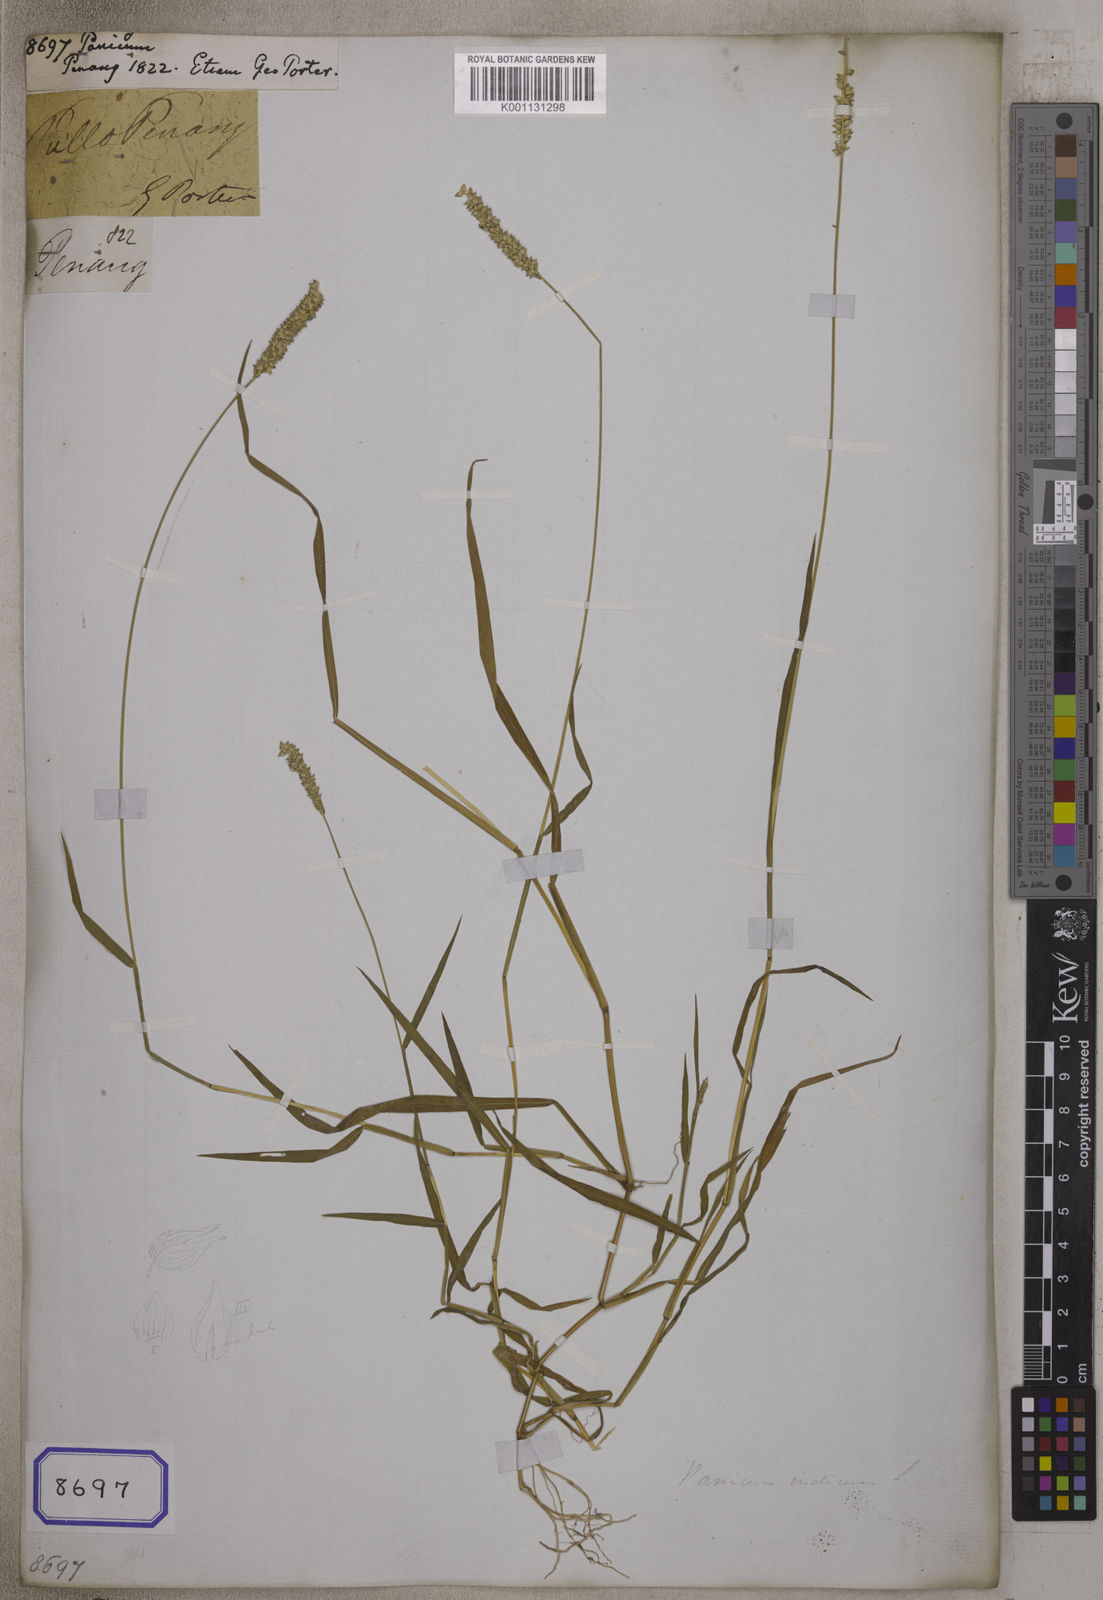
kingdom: Plantae
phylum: Tracheophyta
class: Liliopsida
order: Poales
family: Poaceae
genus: Panicum
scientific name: Panicum
